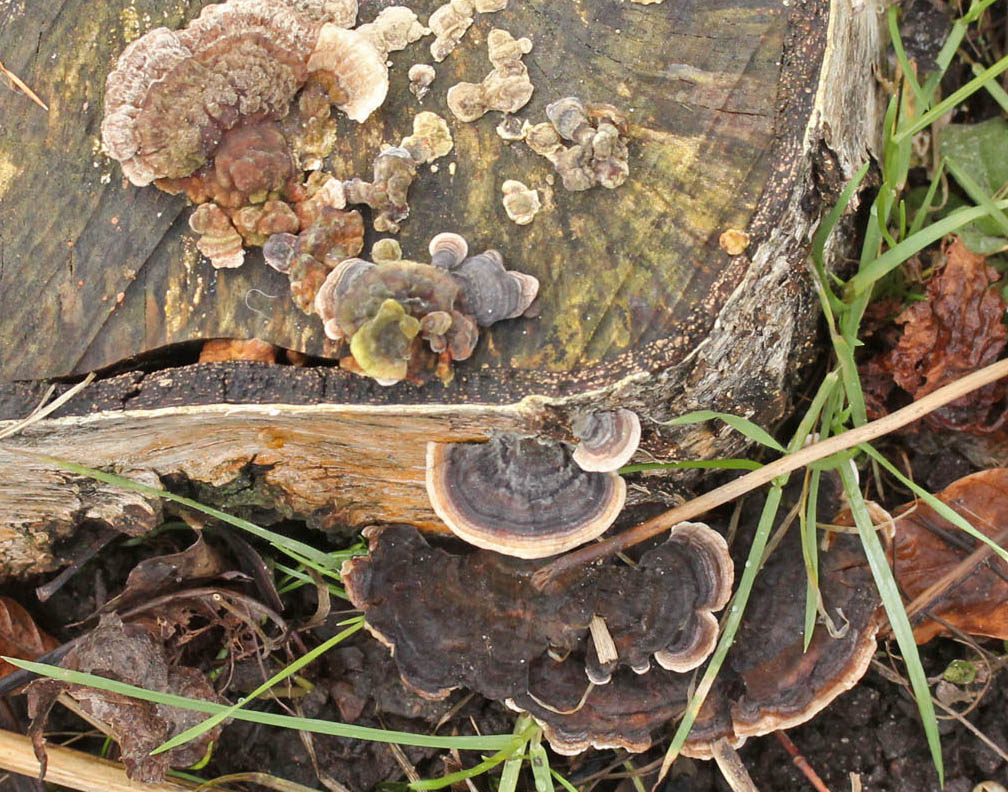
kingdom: Fungi
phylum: Basidiomycota
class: Agaricomycetes
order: Polyporales
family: Polyporaceae
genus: Trametes
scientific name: Trametes versicolor
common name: broget læderporesvamp
